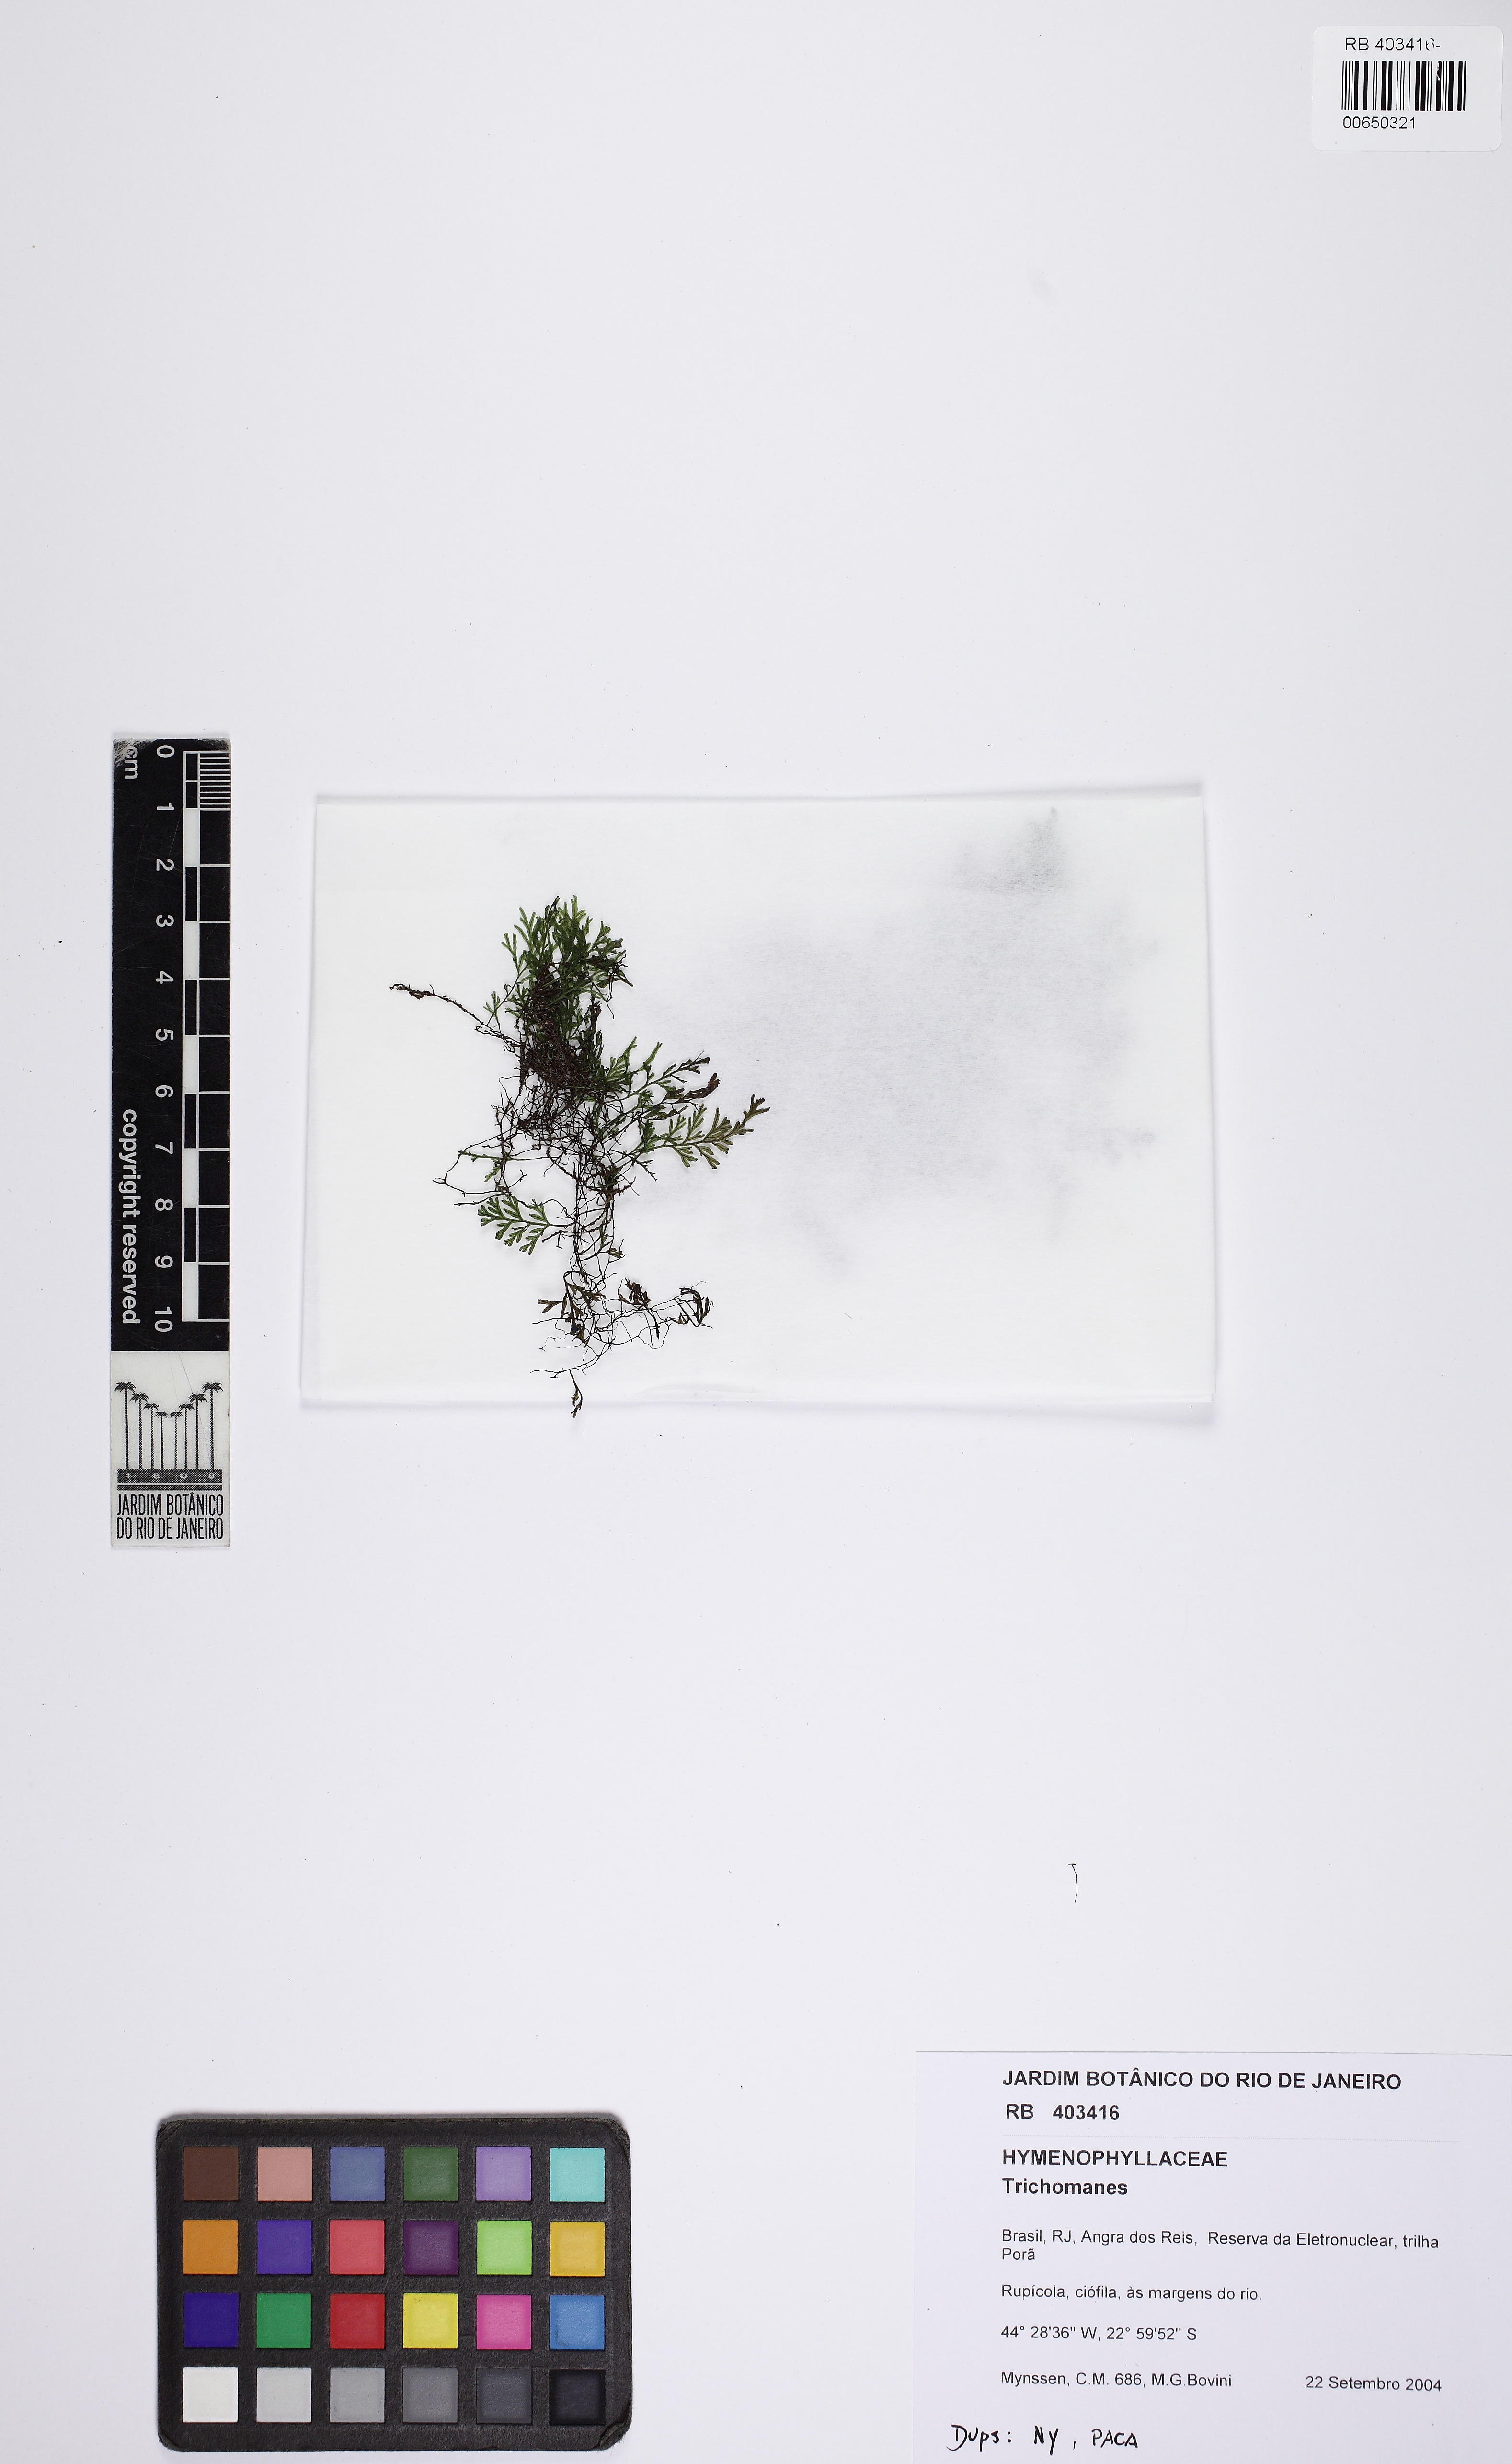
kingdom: Plantae
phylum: Tracheophyta
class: Polypodiopsida
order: Hymenophyllales
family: Hymenophyllaceae
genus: Polyphlebium
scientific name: Polyphlebium diaphanum
